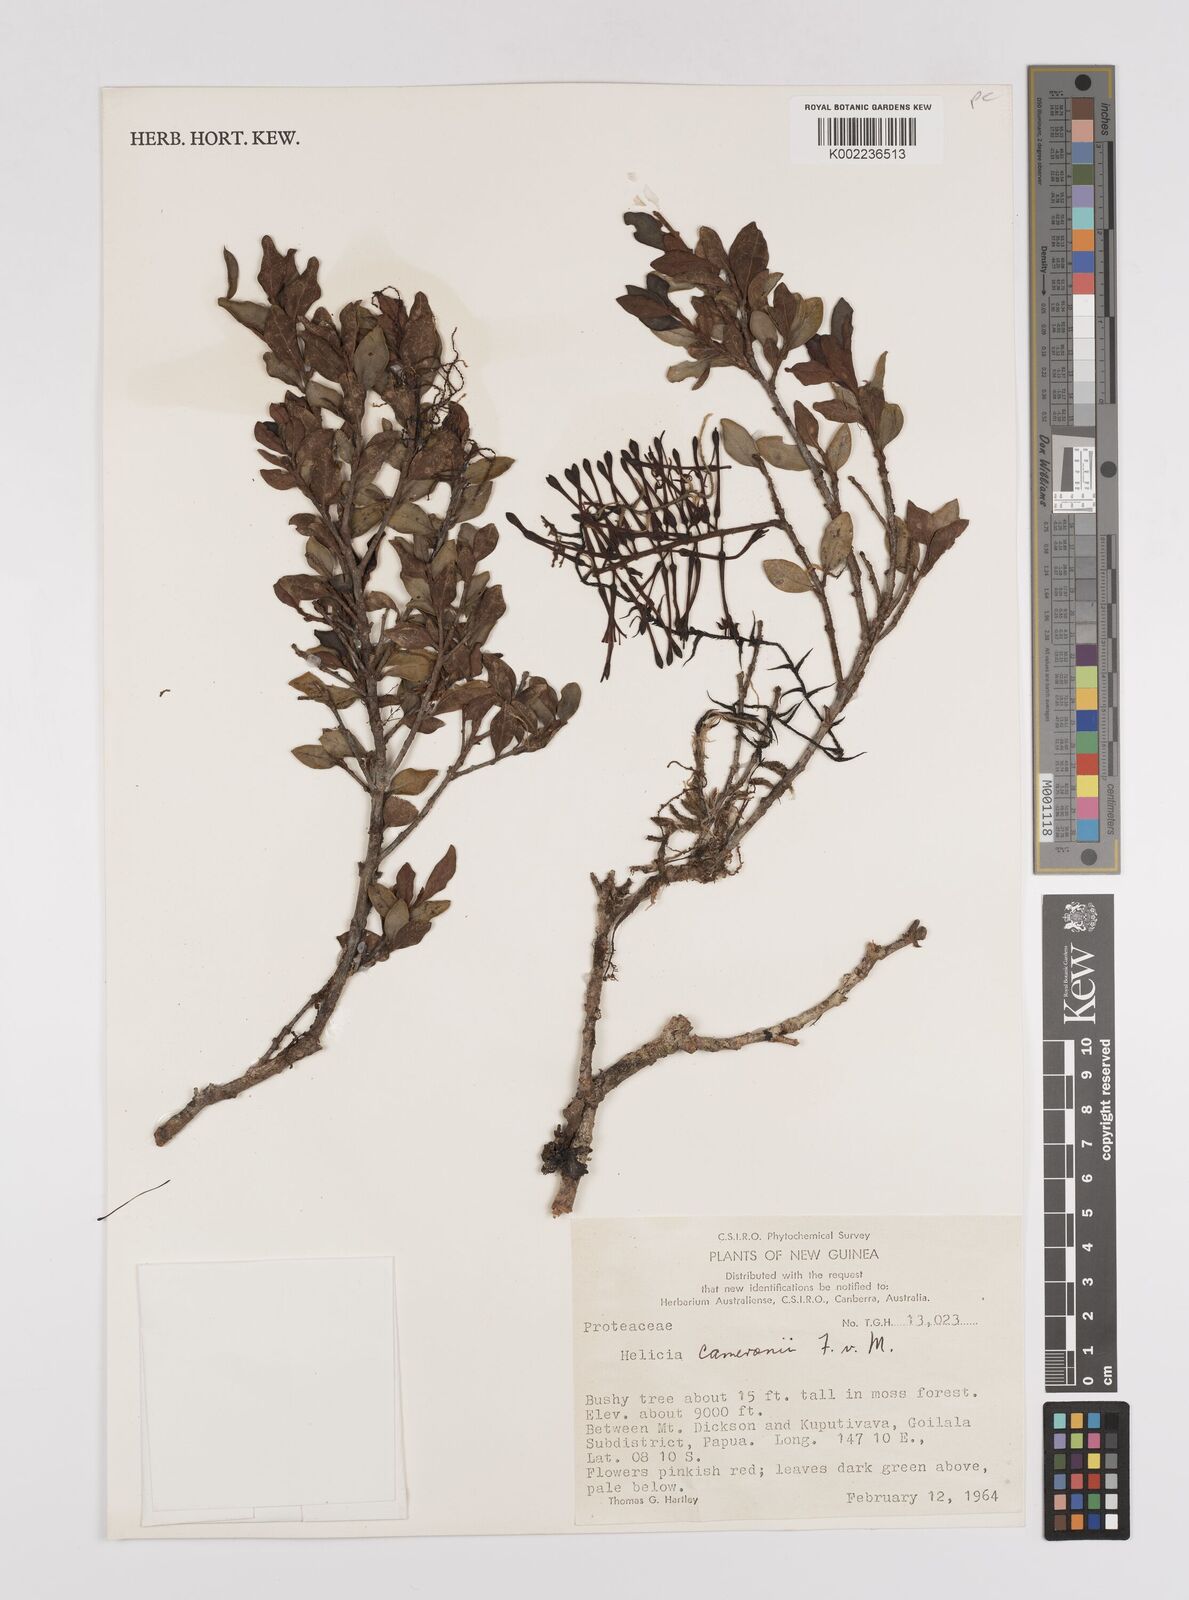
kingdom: Plantae
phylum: Tracheophyta
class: Magnoliopsida
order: Proteales
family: Proteaceae
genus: Helicia
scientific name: Helicia cameronii
